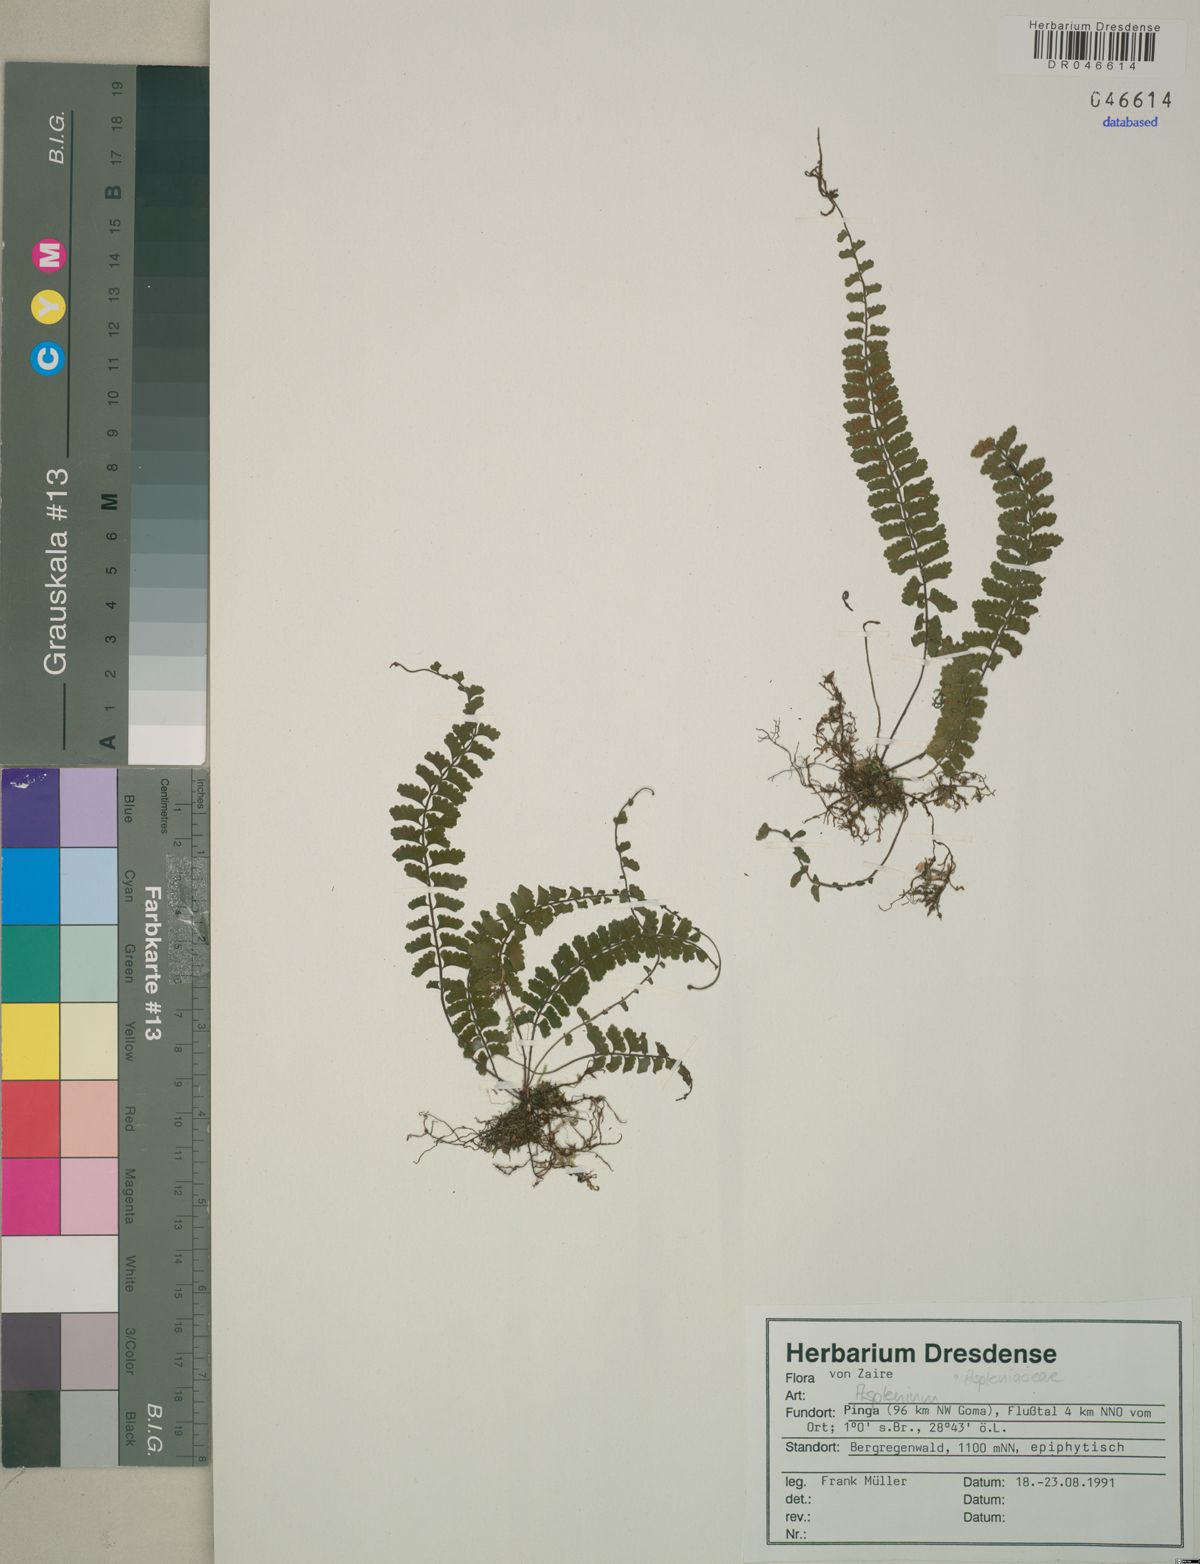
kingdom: Plantae
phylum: Tracheophyta
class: Polypodiopsida
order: Polypodiales
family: Aspleniaceae
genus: Asplenium
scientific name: Asplenium
